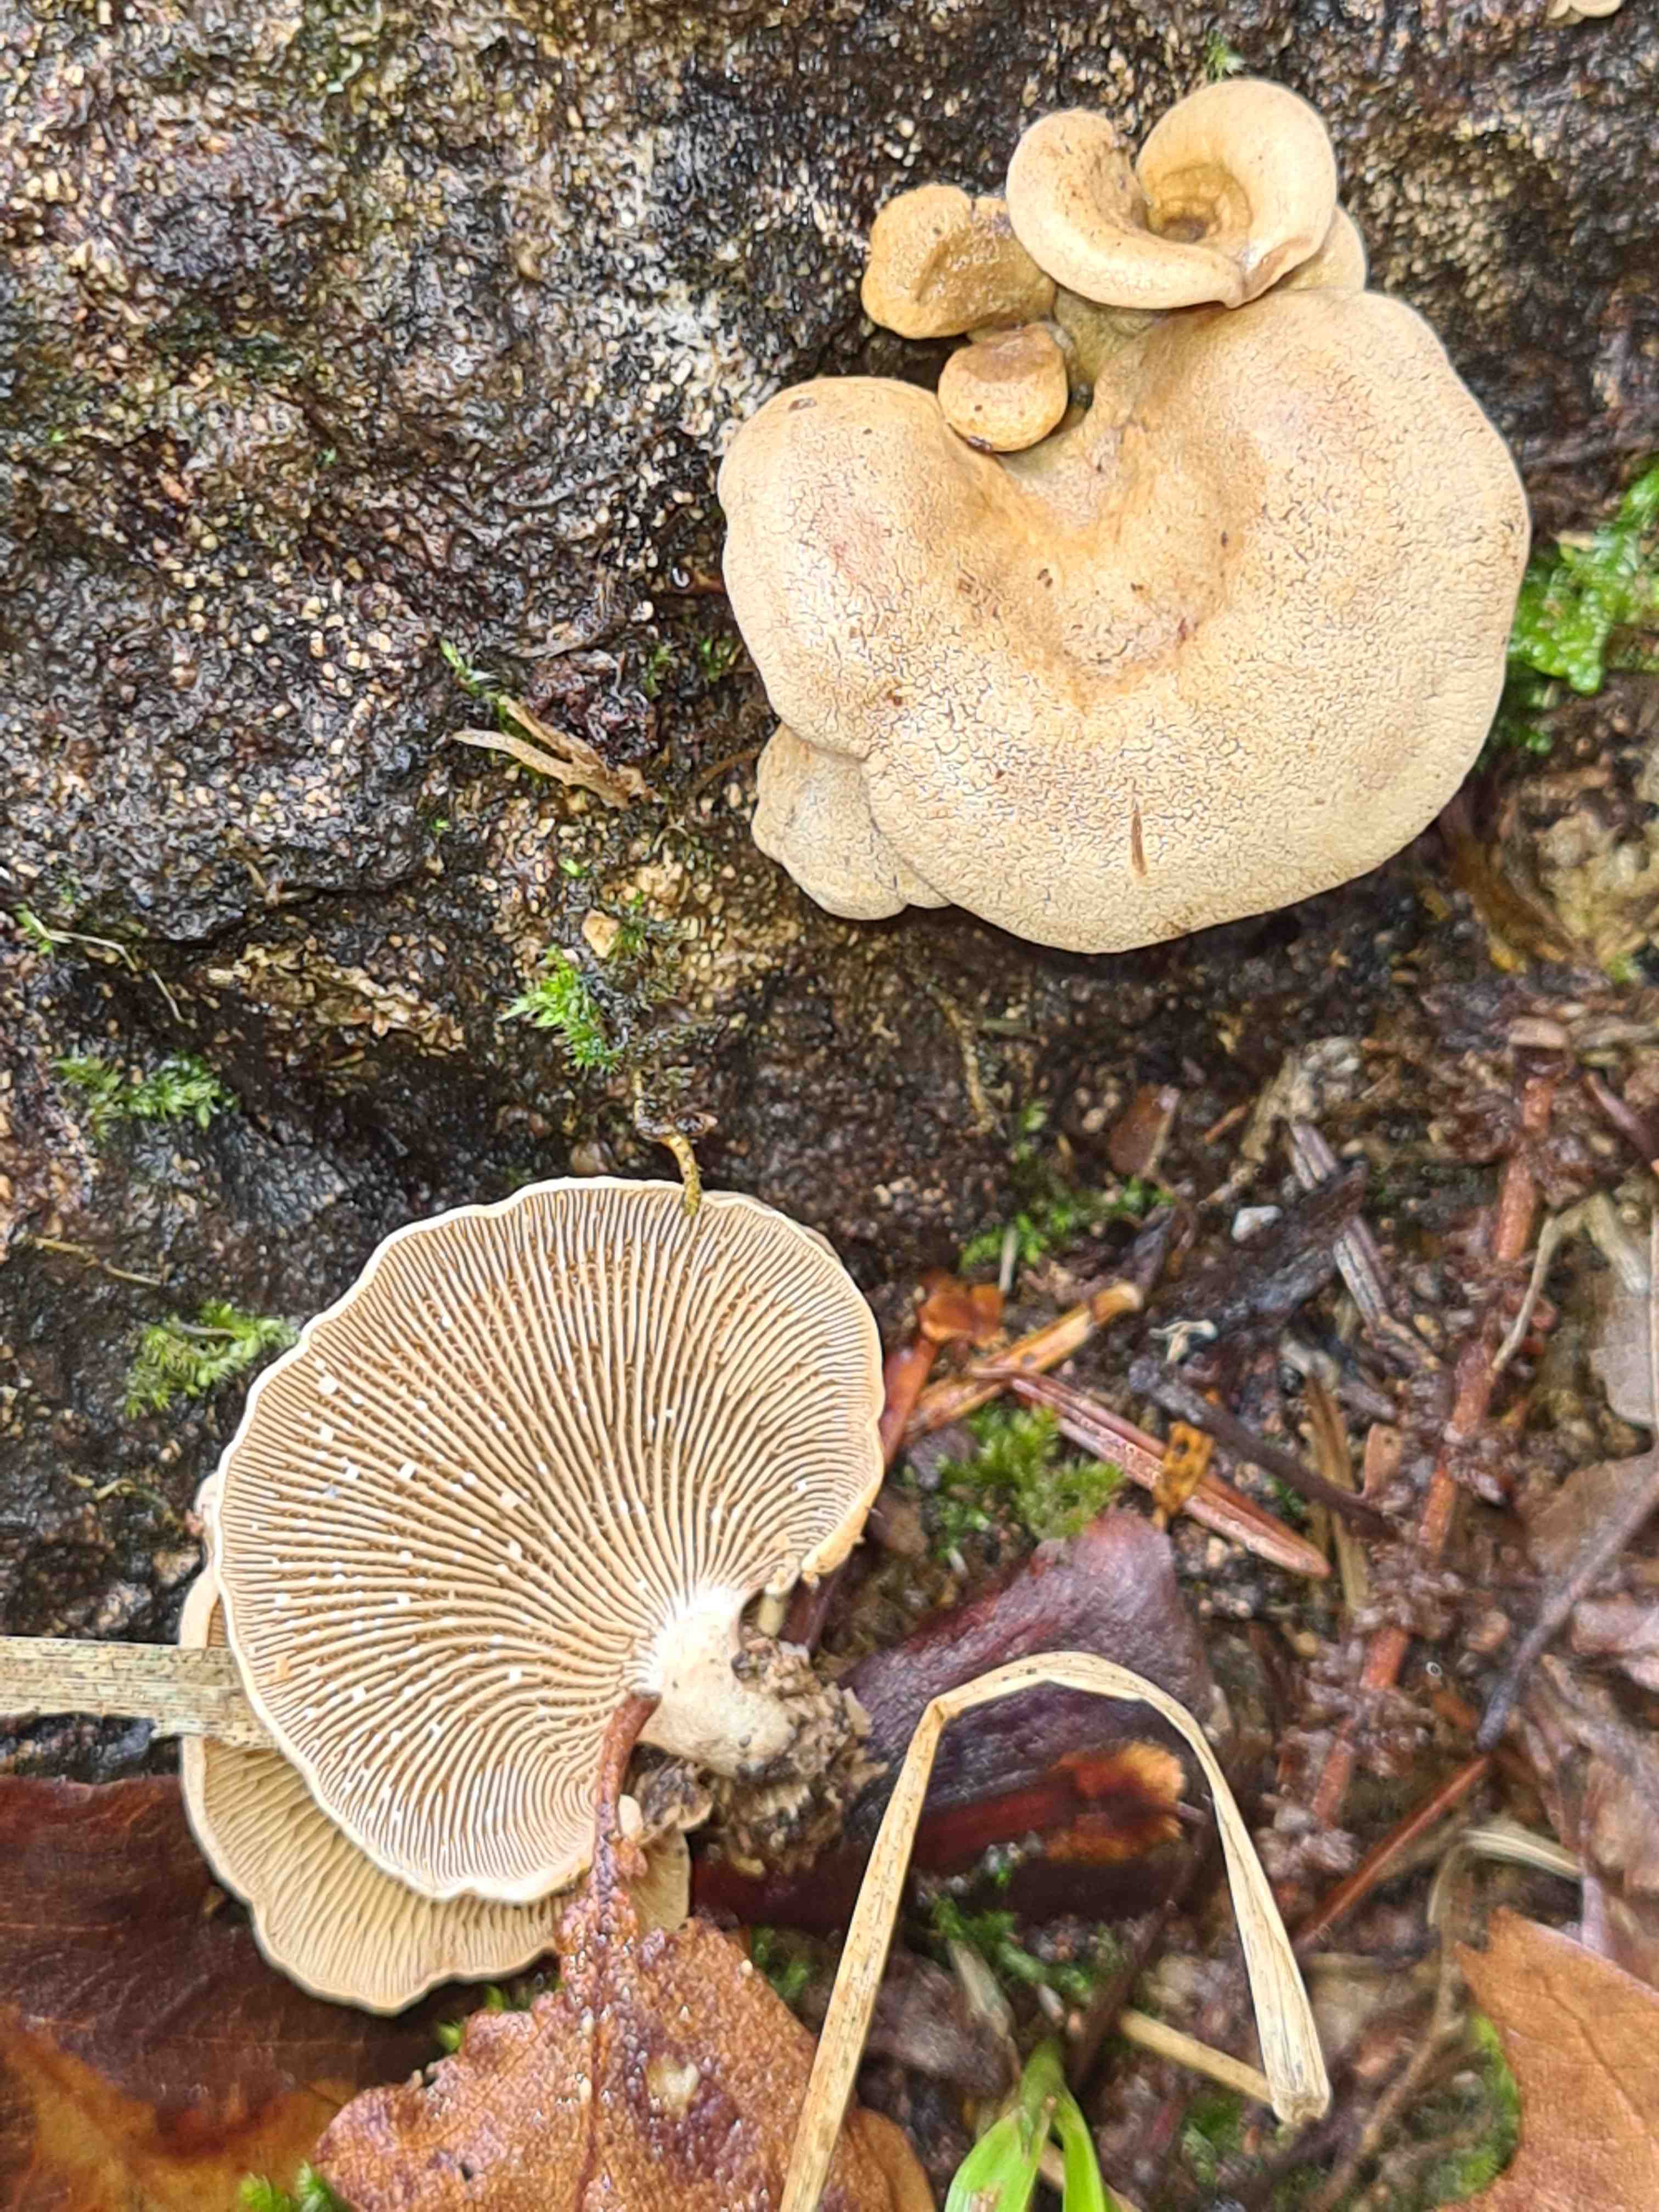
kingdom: Fungi
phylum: Basidiomycota
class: Agaricomycetes
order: Agaricales
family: Mycenaceae
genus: Panellus
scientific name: Panellus stipticus
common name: kliddet epaulethat
